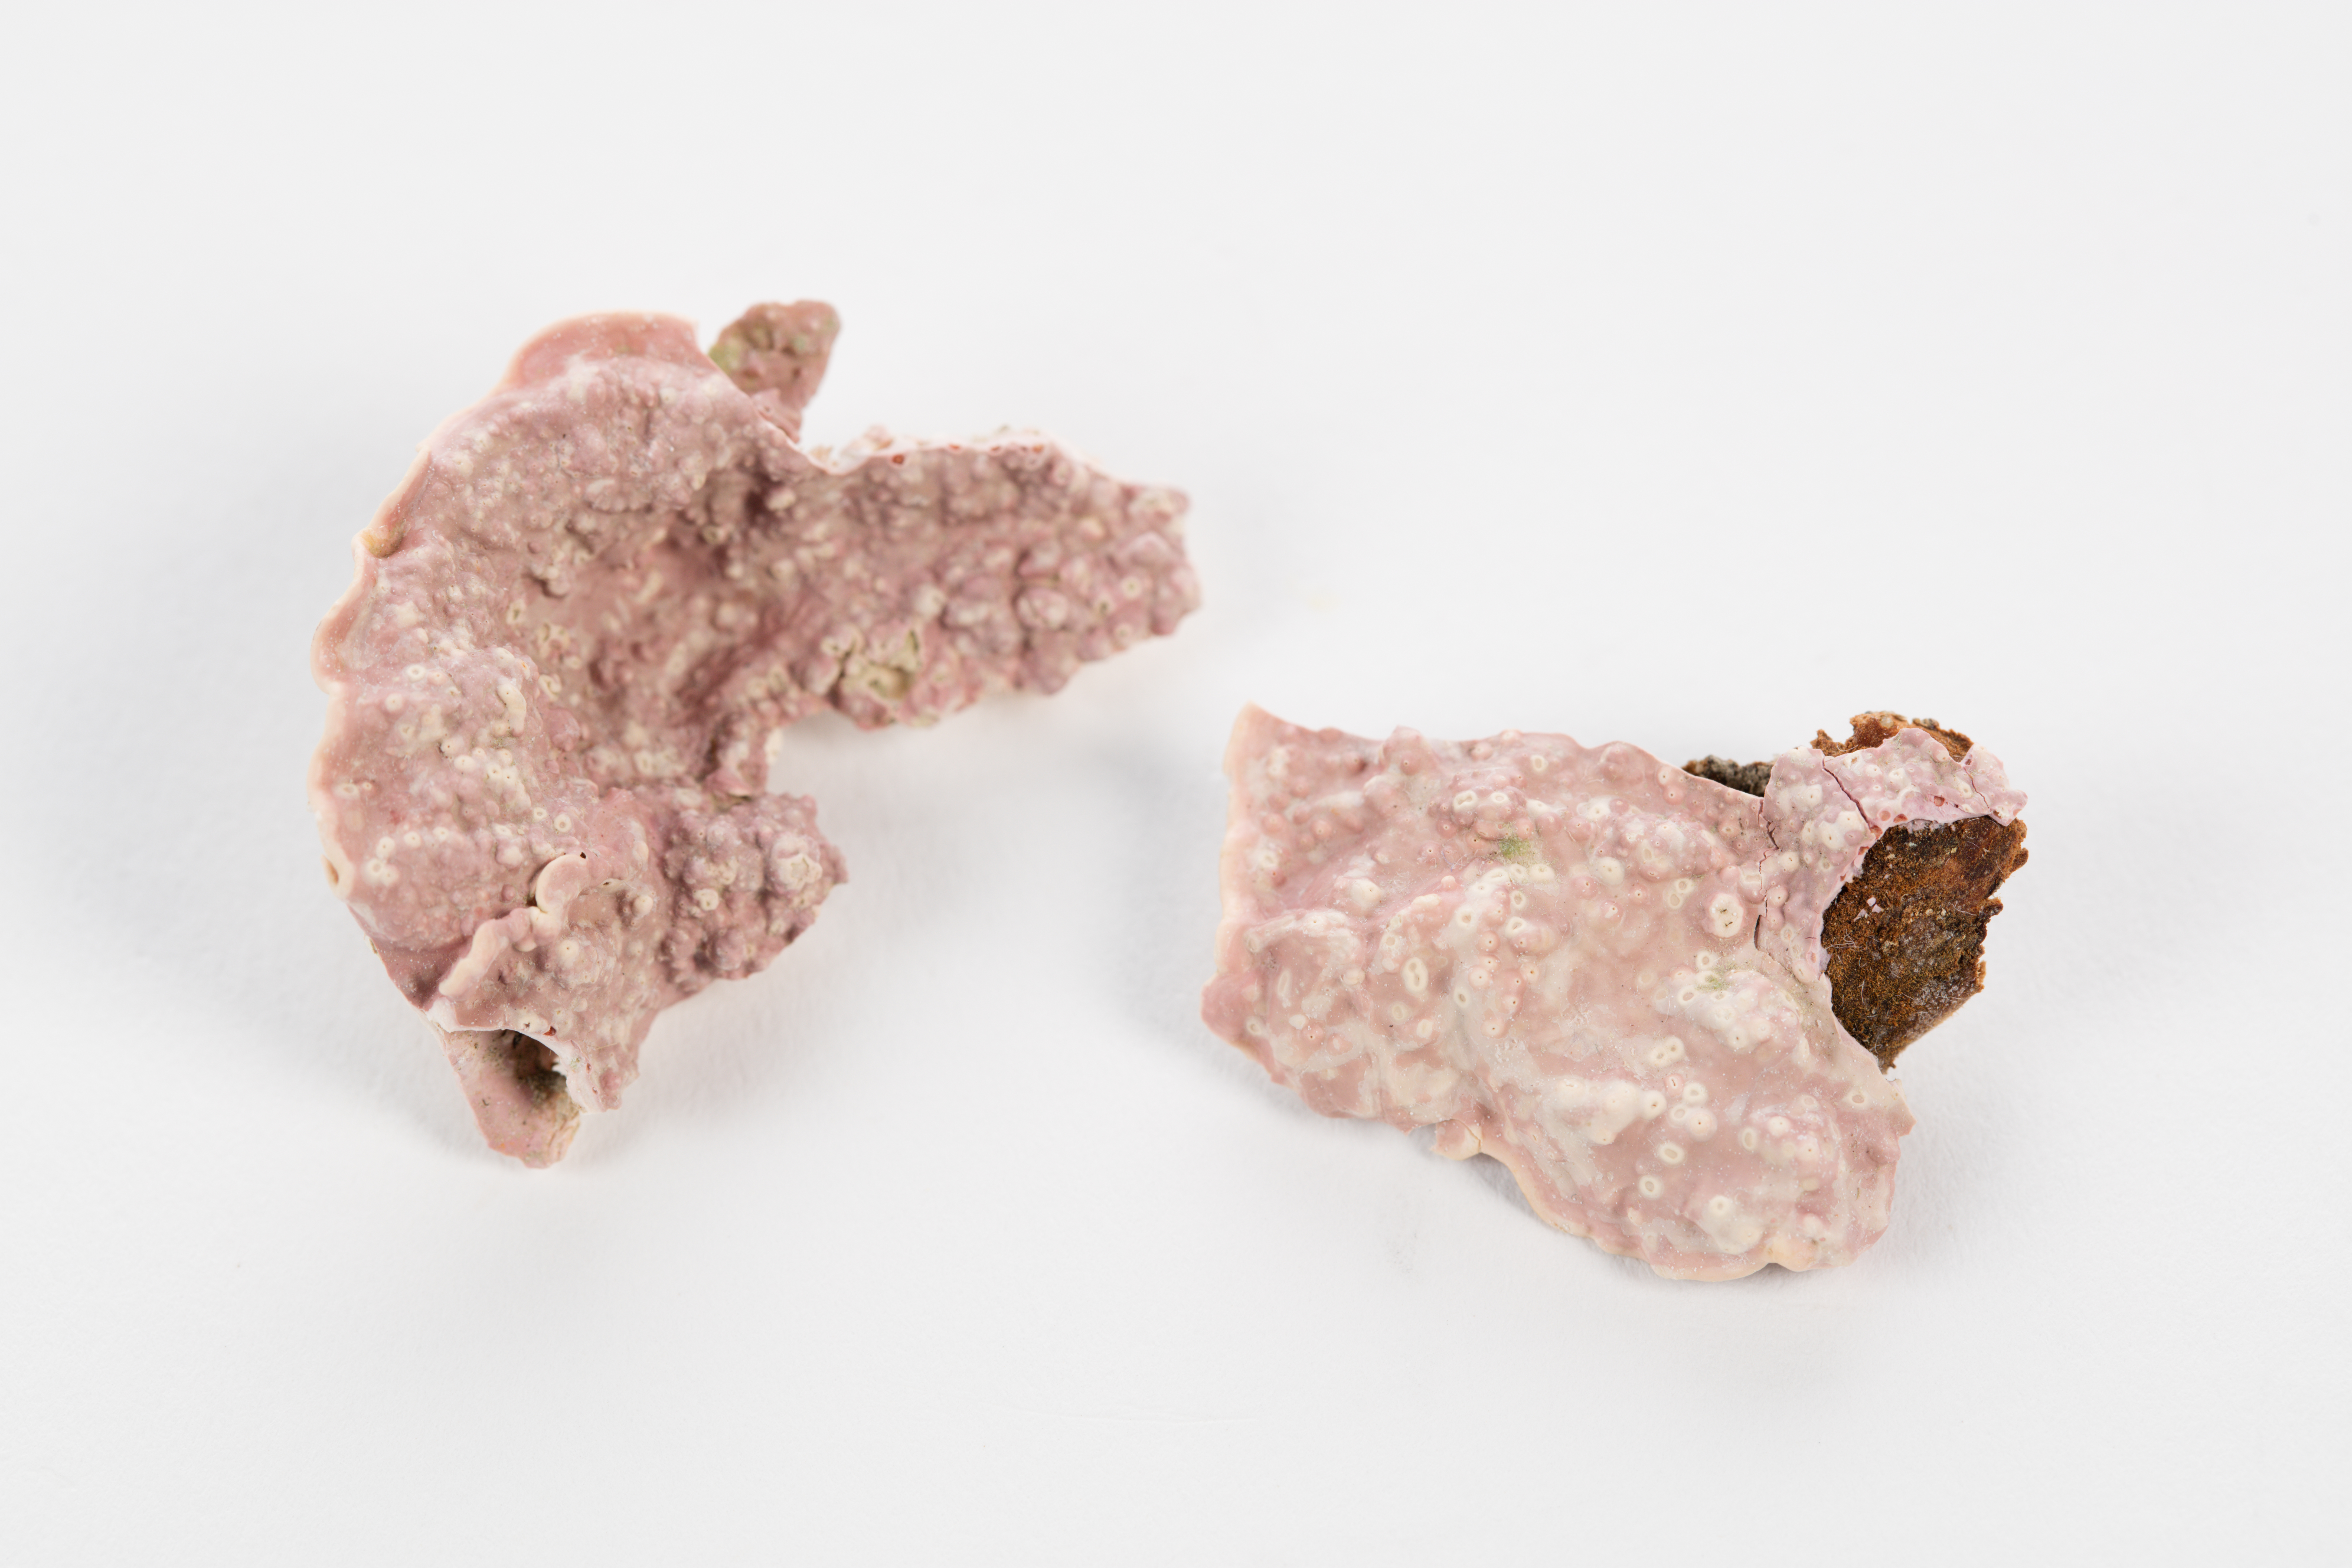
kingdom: Plantae
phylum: Rhodophyta
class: Florideophyceae
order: Corallinales
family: Mesophyllumaceae
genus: Mesophyllum
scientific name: Mesophyllum
